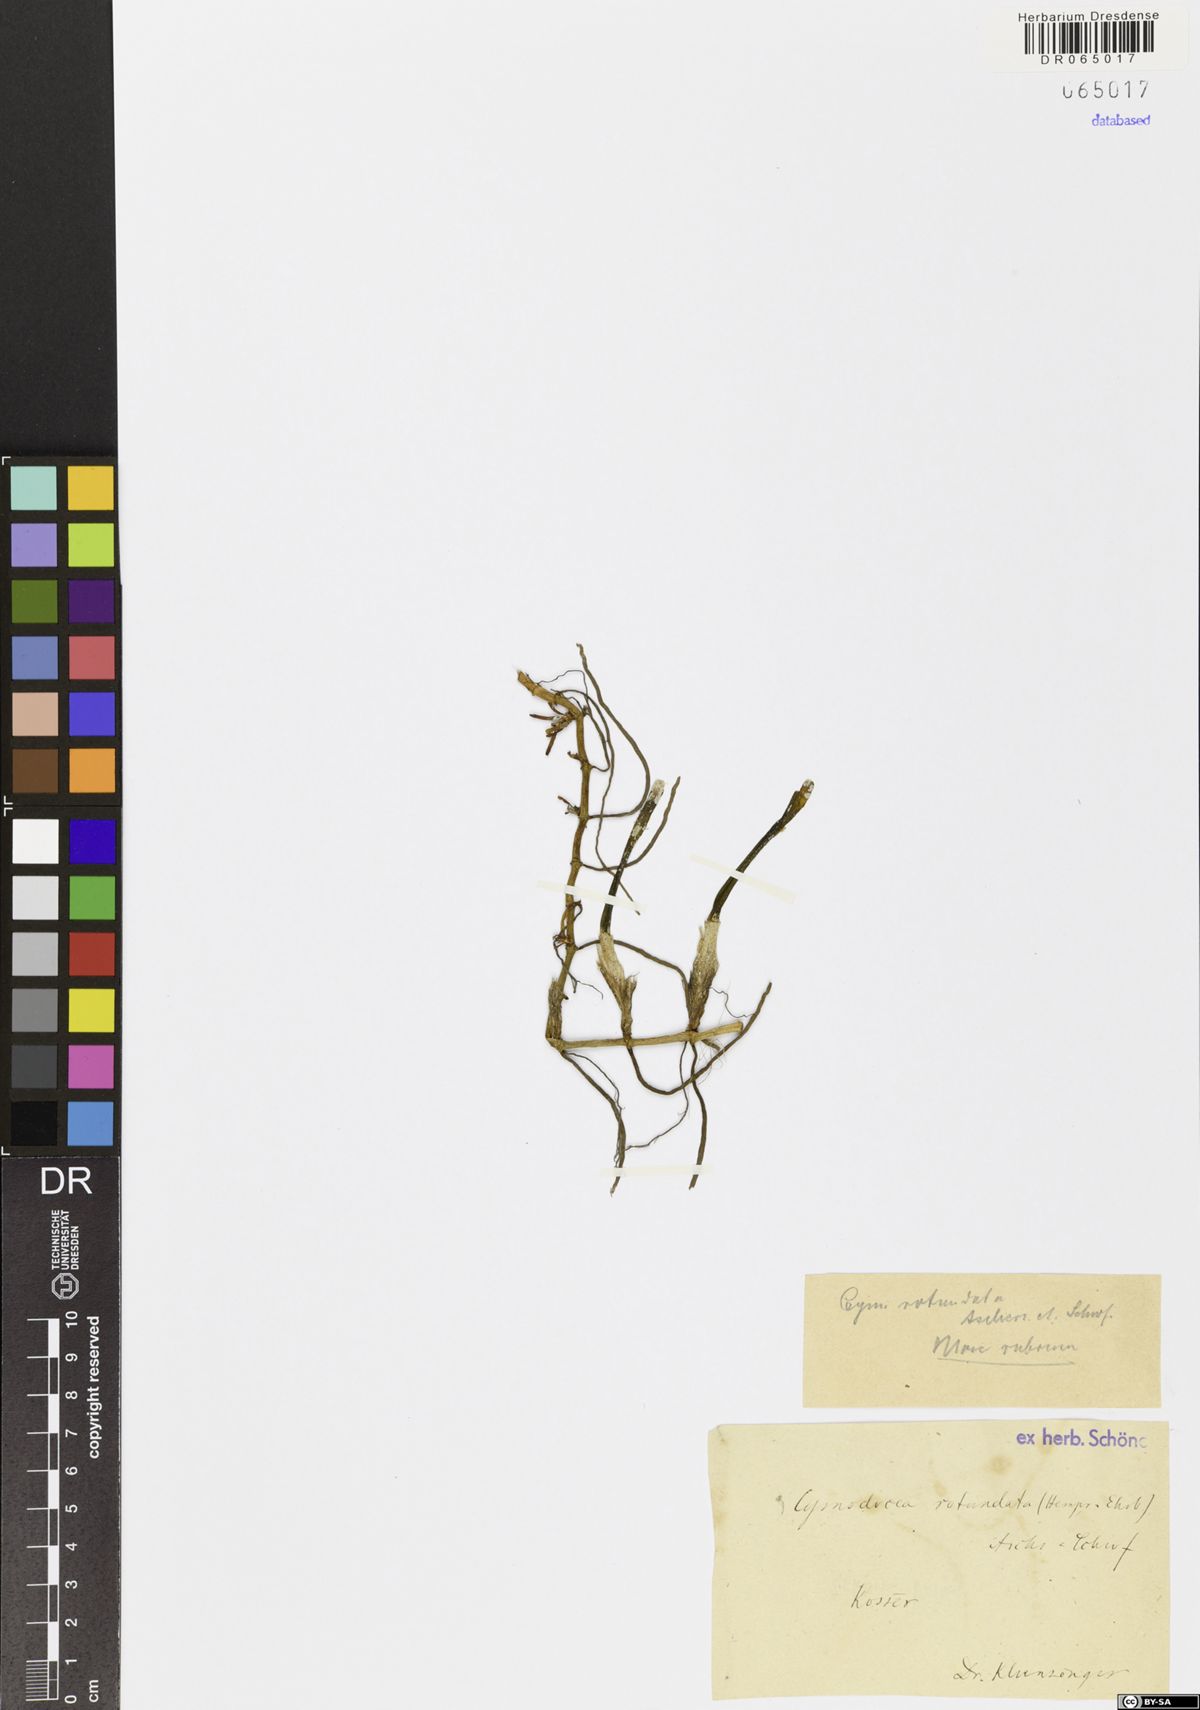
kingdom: Plantae
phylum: Tracheophyta
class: Liliopsida
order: Alismatales
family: Cymodoceaceae
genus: Cymodocea
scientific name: Cymodocea rotundata
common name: Species code: cr
